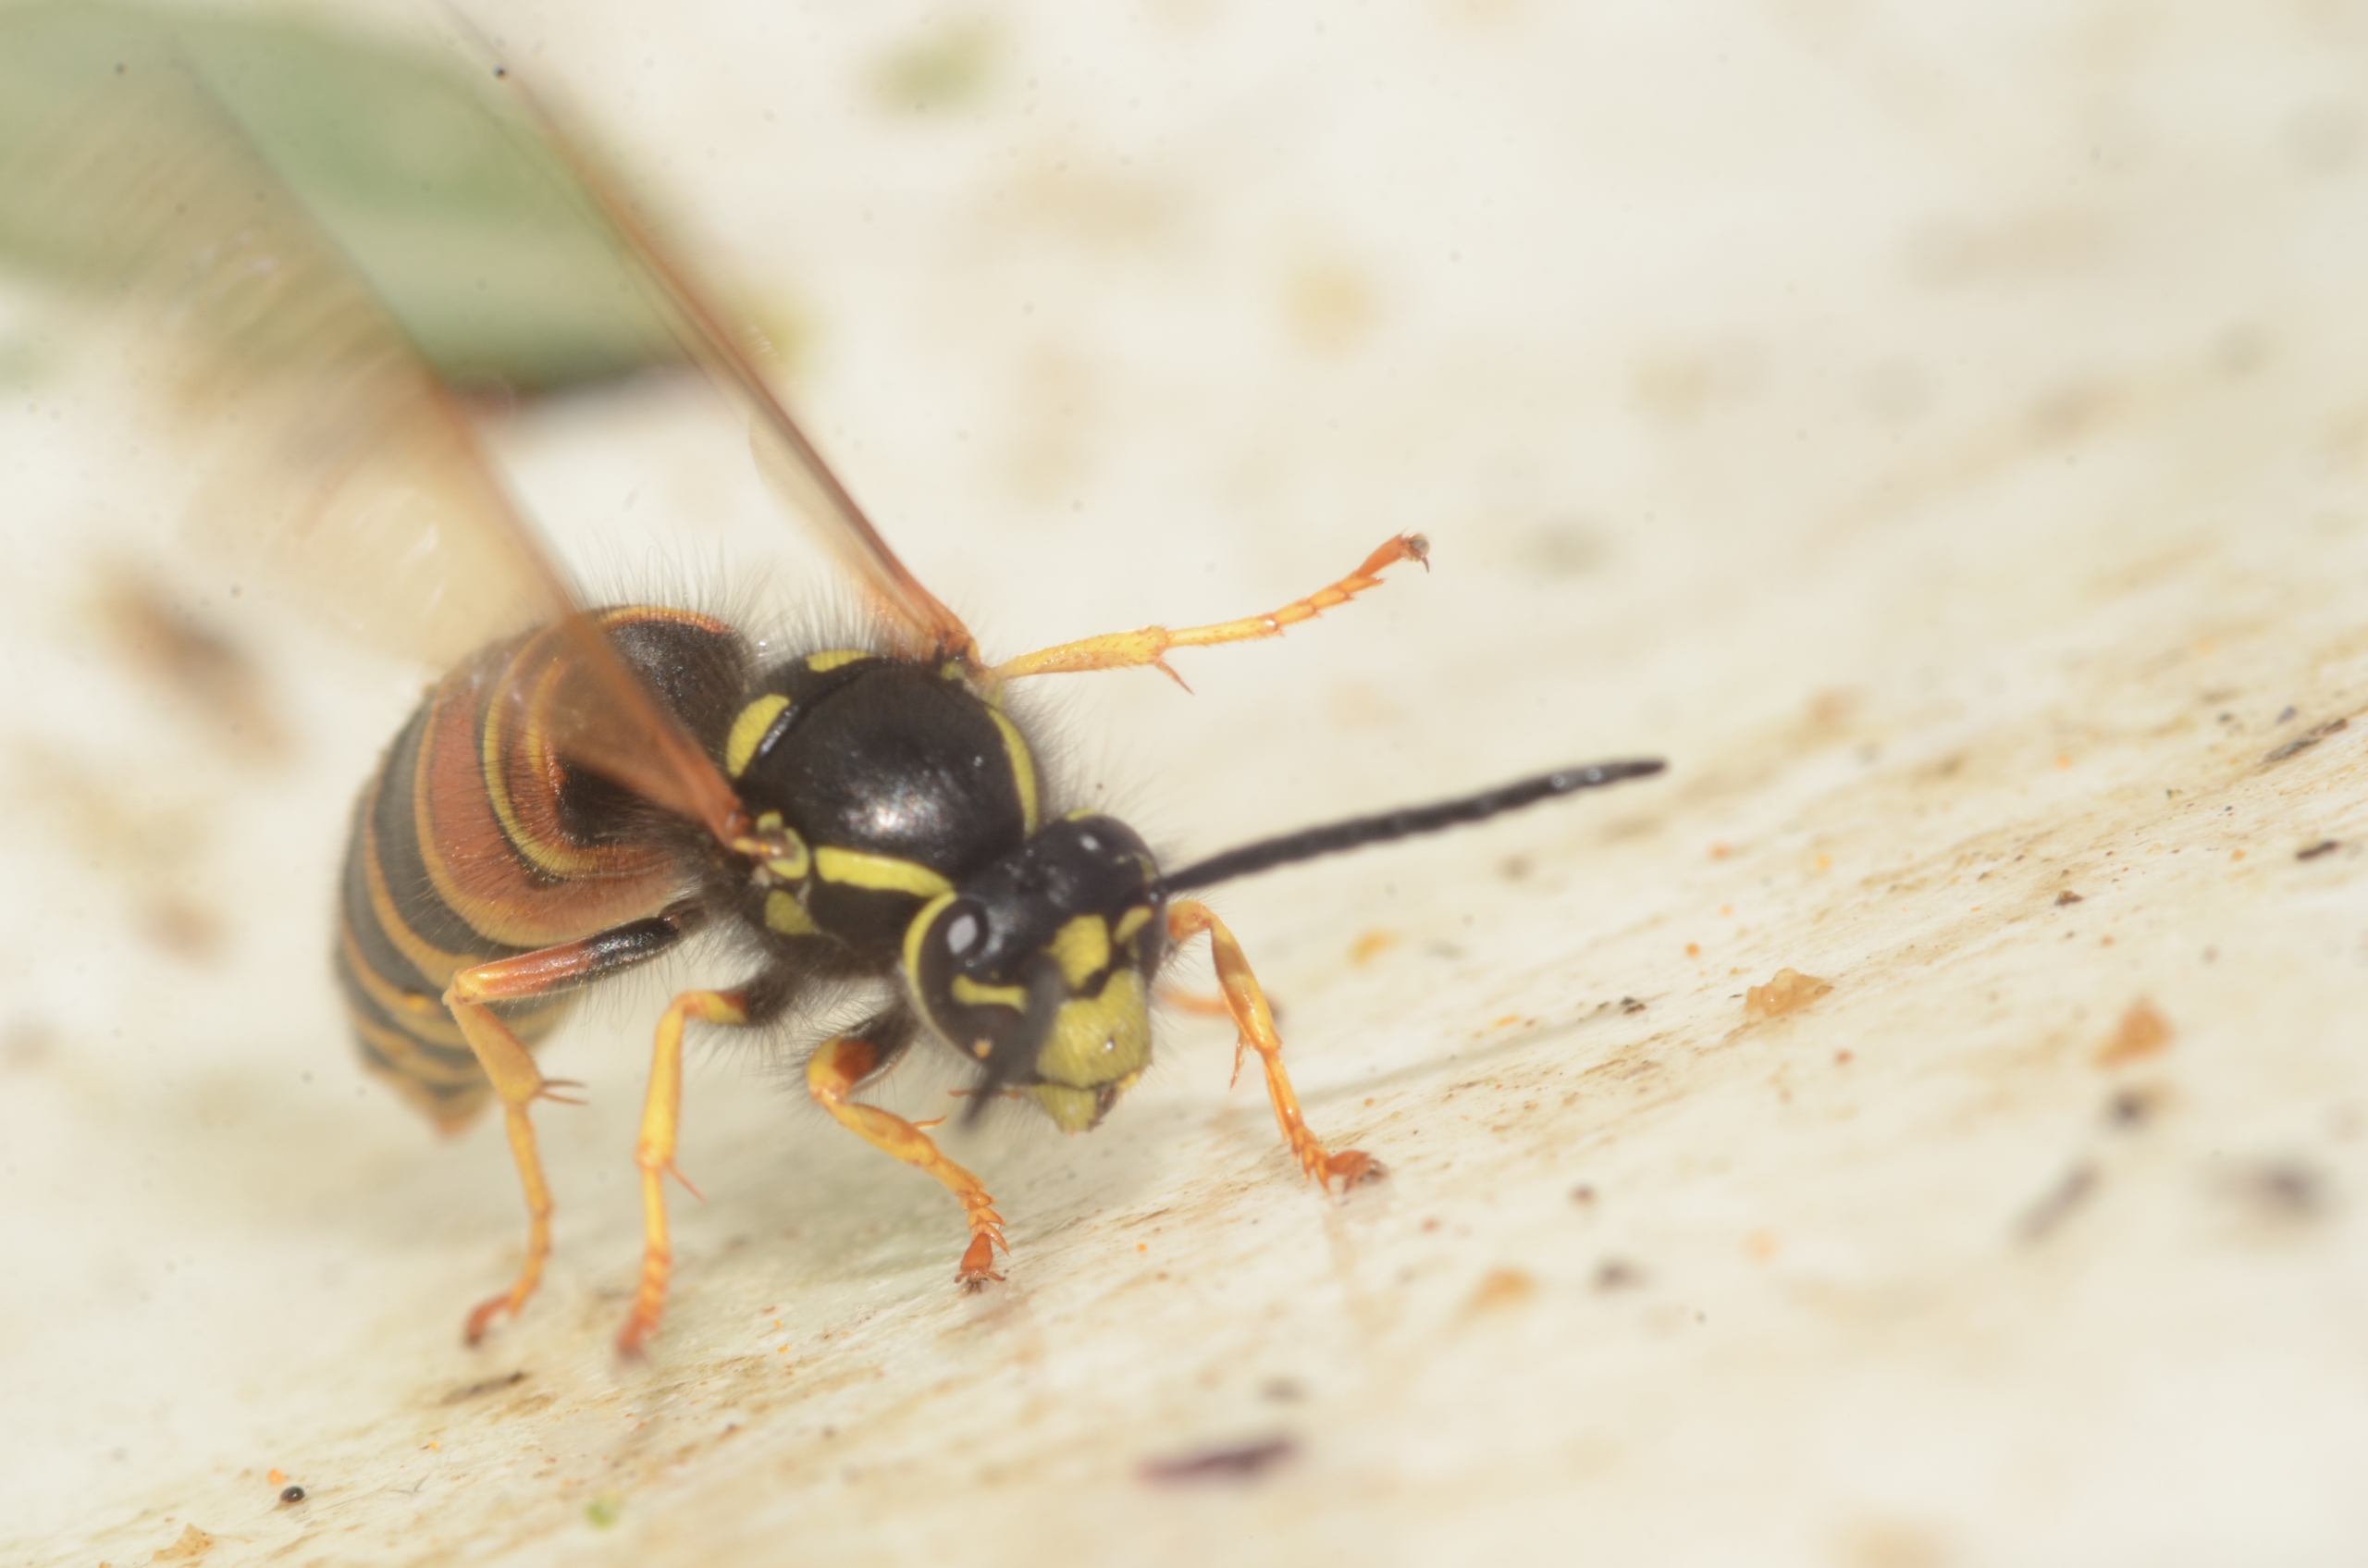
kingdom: Animalia
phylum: Arthropoda
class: Insecta
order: Hymenoptera
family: Vespidae
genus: Vespula
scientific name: Vespula rufa
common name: Rød gedehams
